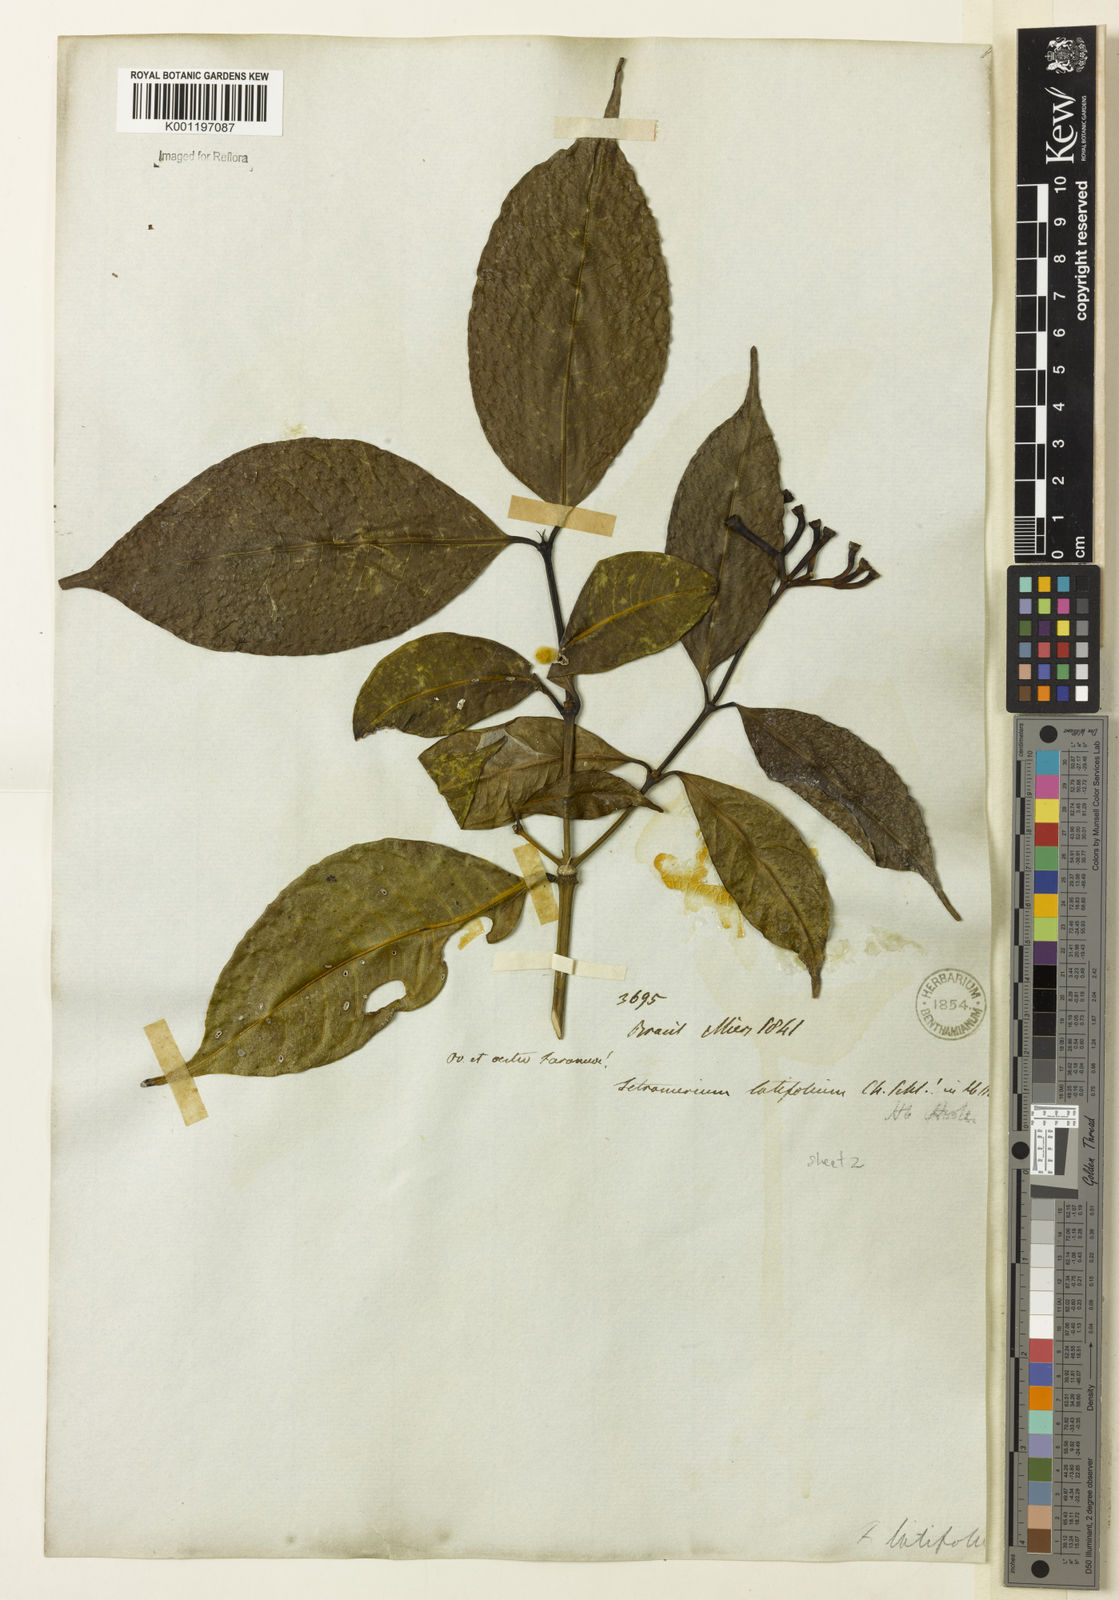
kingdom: Plantae
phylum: Tracheophyta
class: Magnoliopsida
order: Gentianales
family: Rubiaceae
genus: Faramea
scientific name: Faramea latifolia
